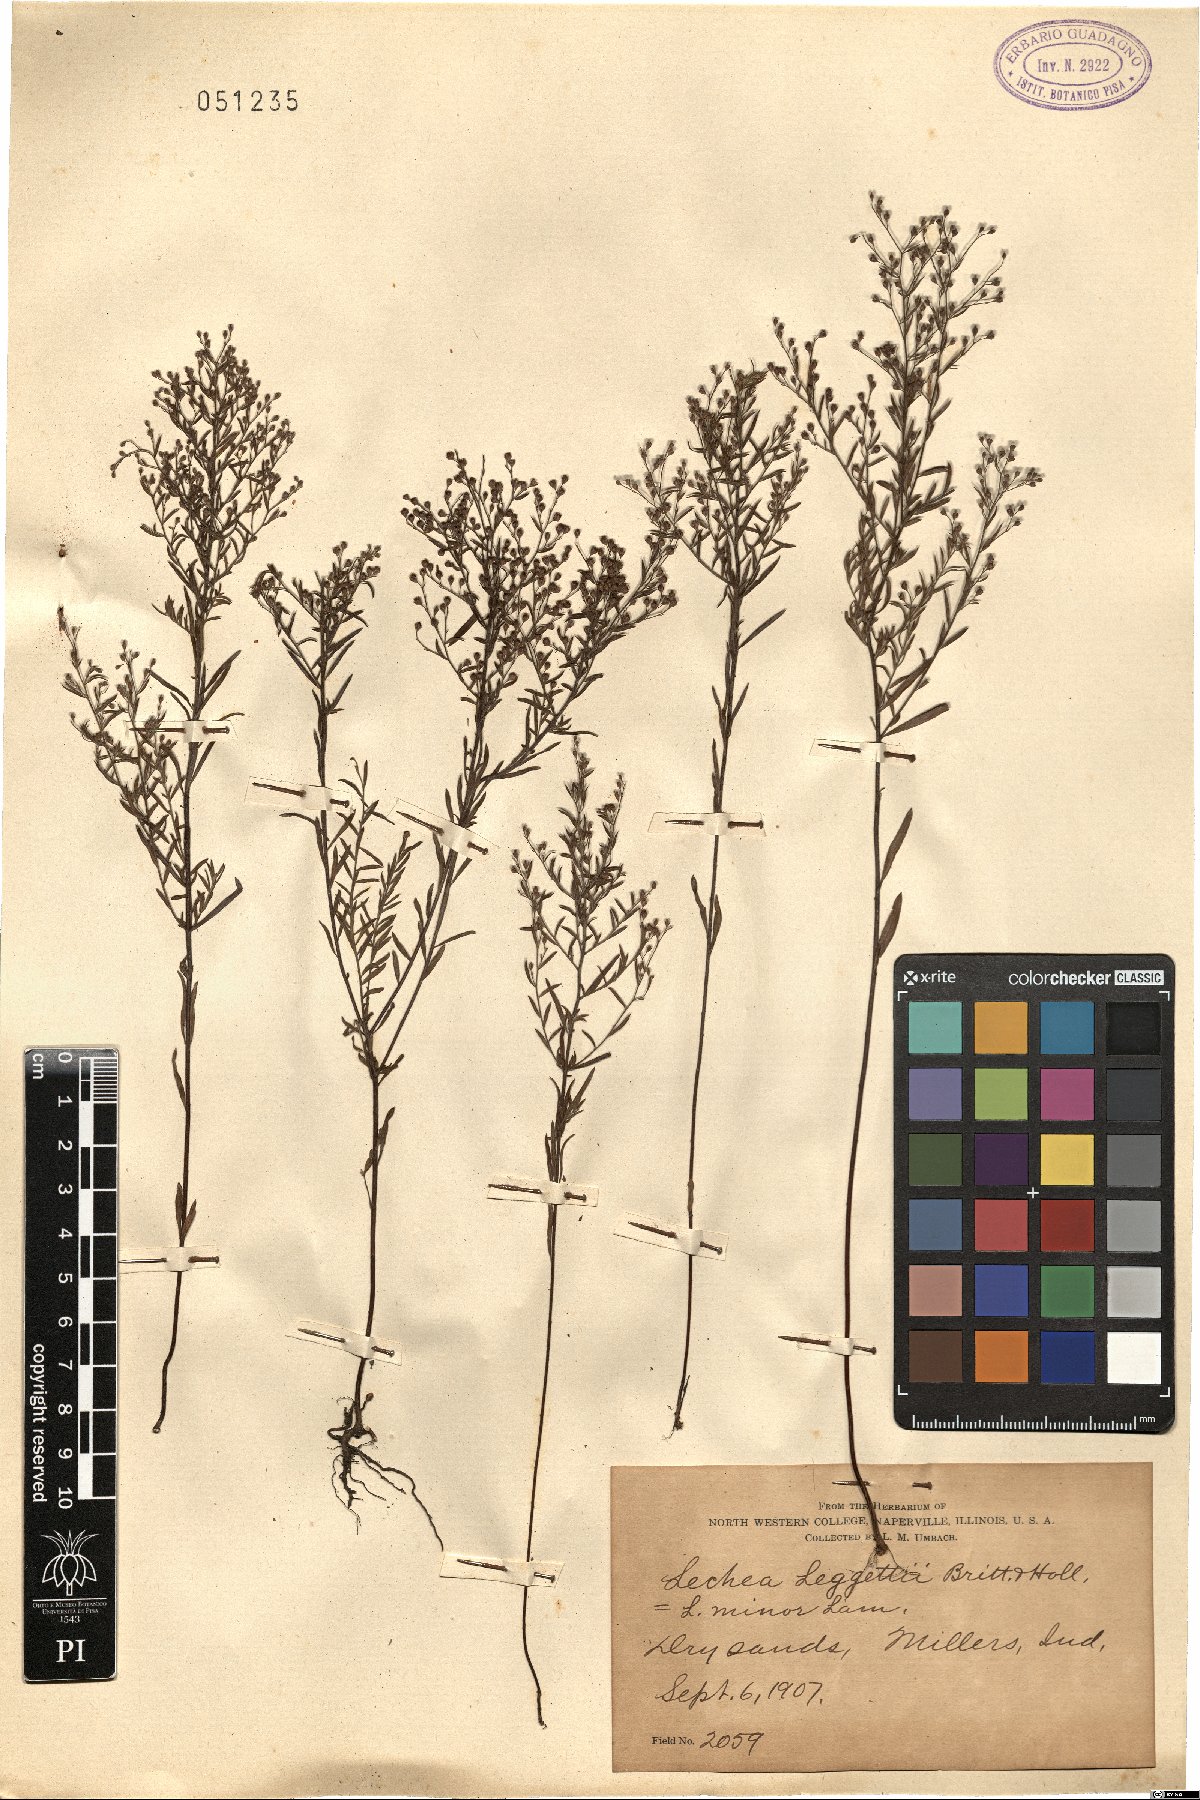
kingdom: Plantae
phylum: Tracheophyta
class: Magnoliopsida
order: Malvales
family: Cistaceae
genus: Lechea
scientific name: Lechea minor
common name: Thyme-leaf pinweed
